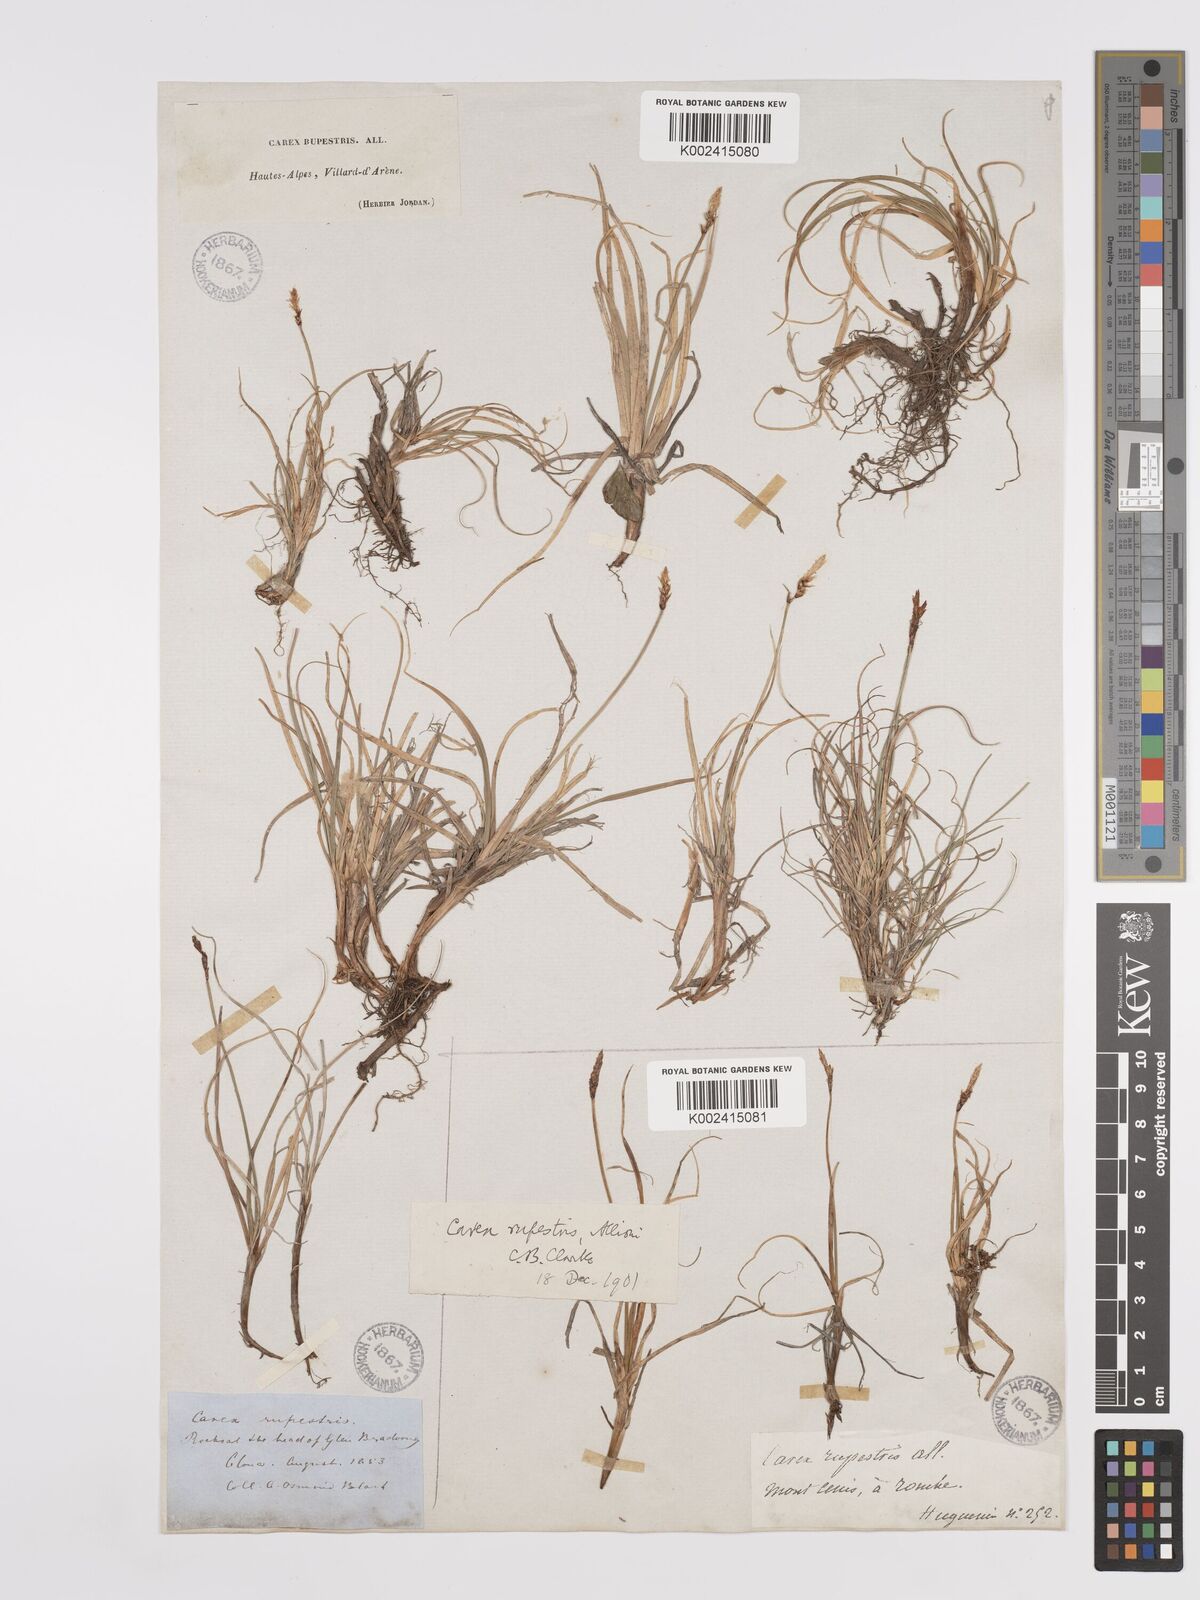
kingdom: Plantae
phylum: Tracheophyta
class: Liliopsida
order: Poales
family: Cyperaceae
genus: Carex
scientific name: Carex rupestris
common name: Rock sedge
